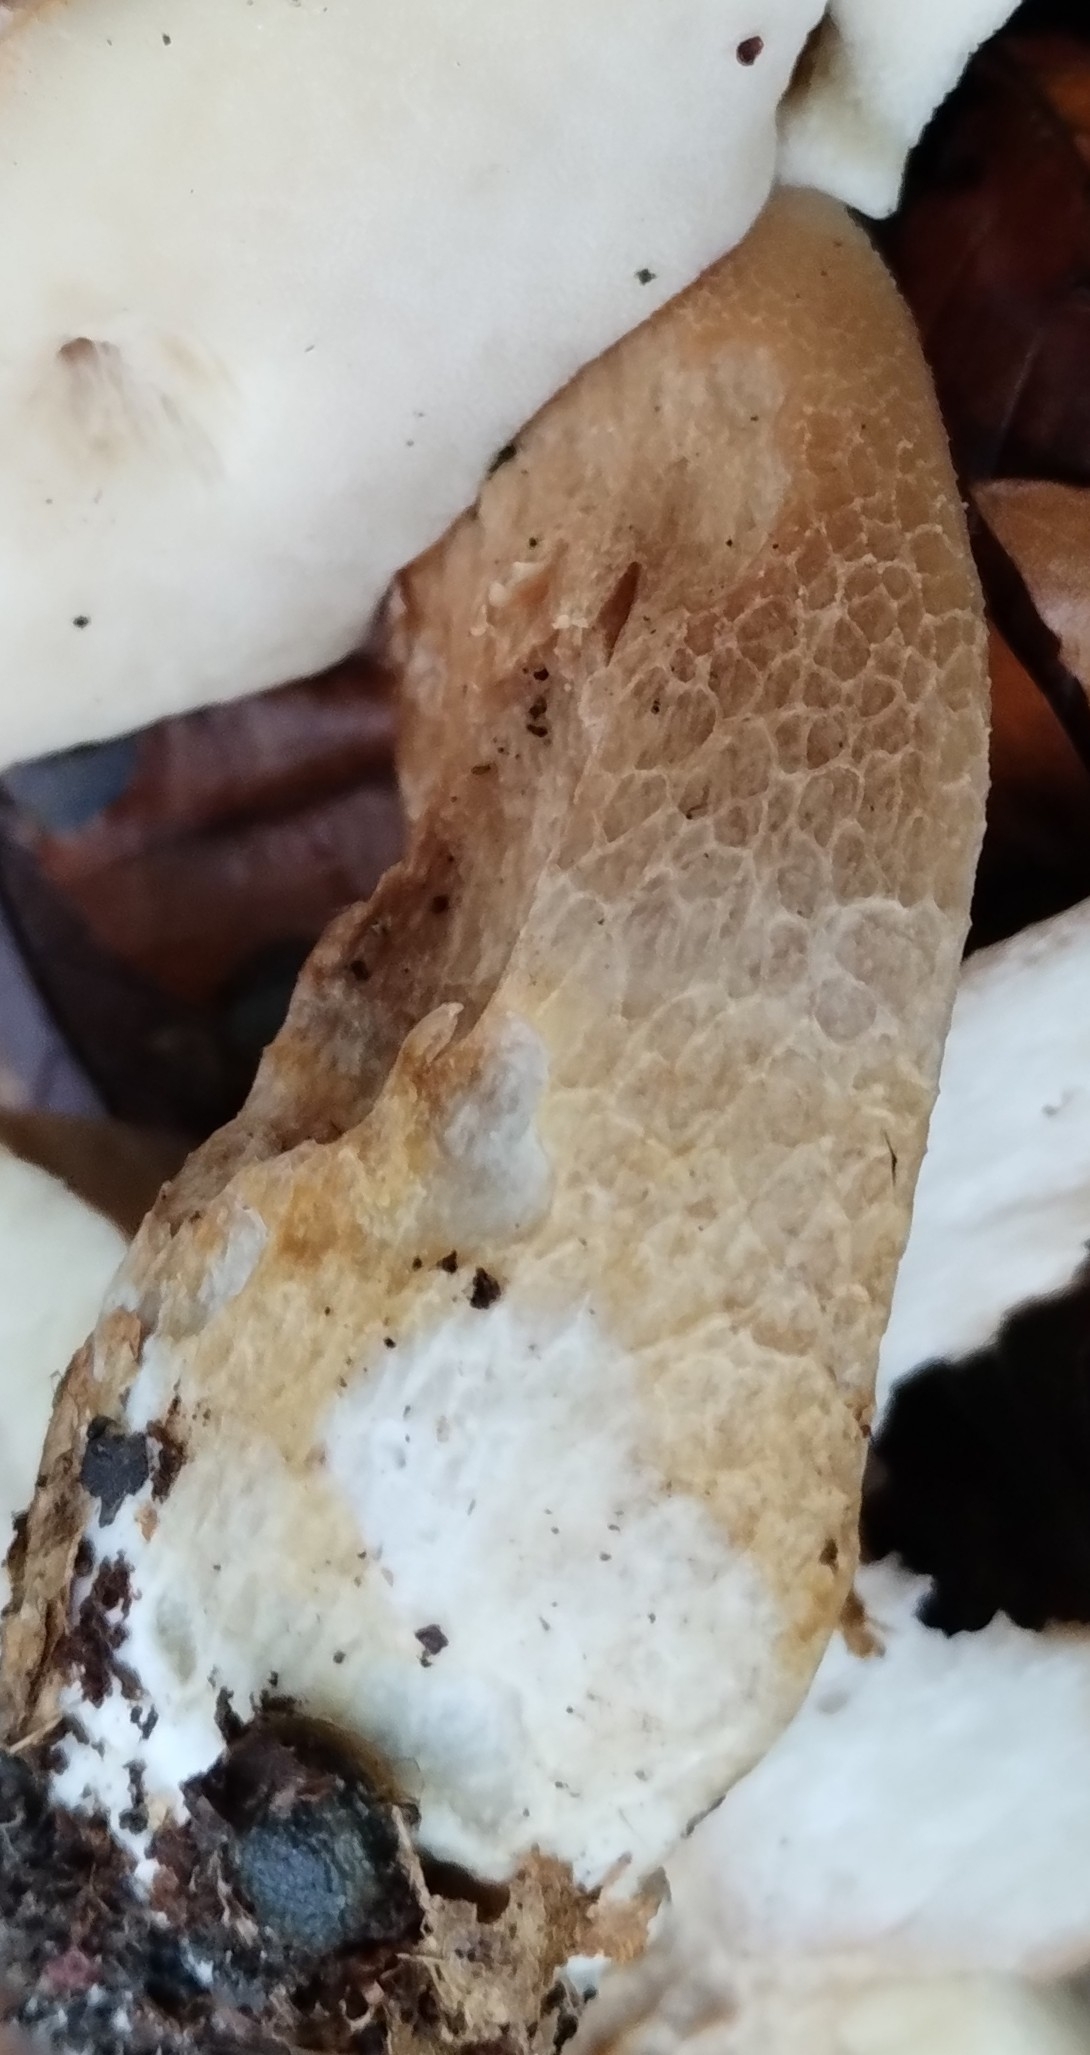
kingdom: Fungi
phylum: Basidiomycota
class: Agaricomycetes
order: Boletales
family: Boletaceae
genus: Boletus
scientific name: Boletus edulis
